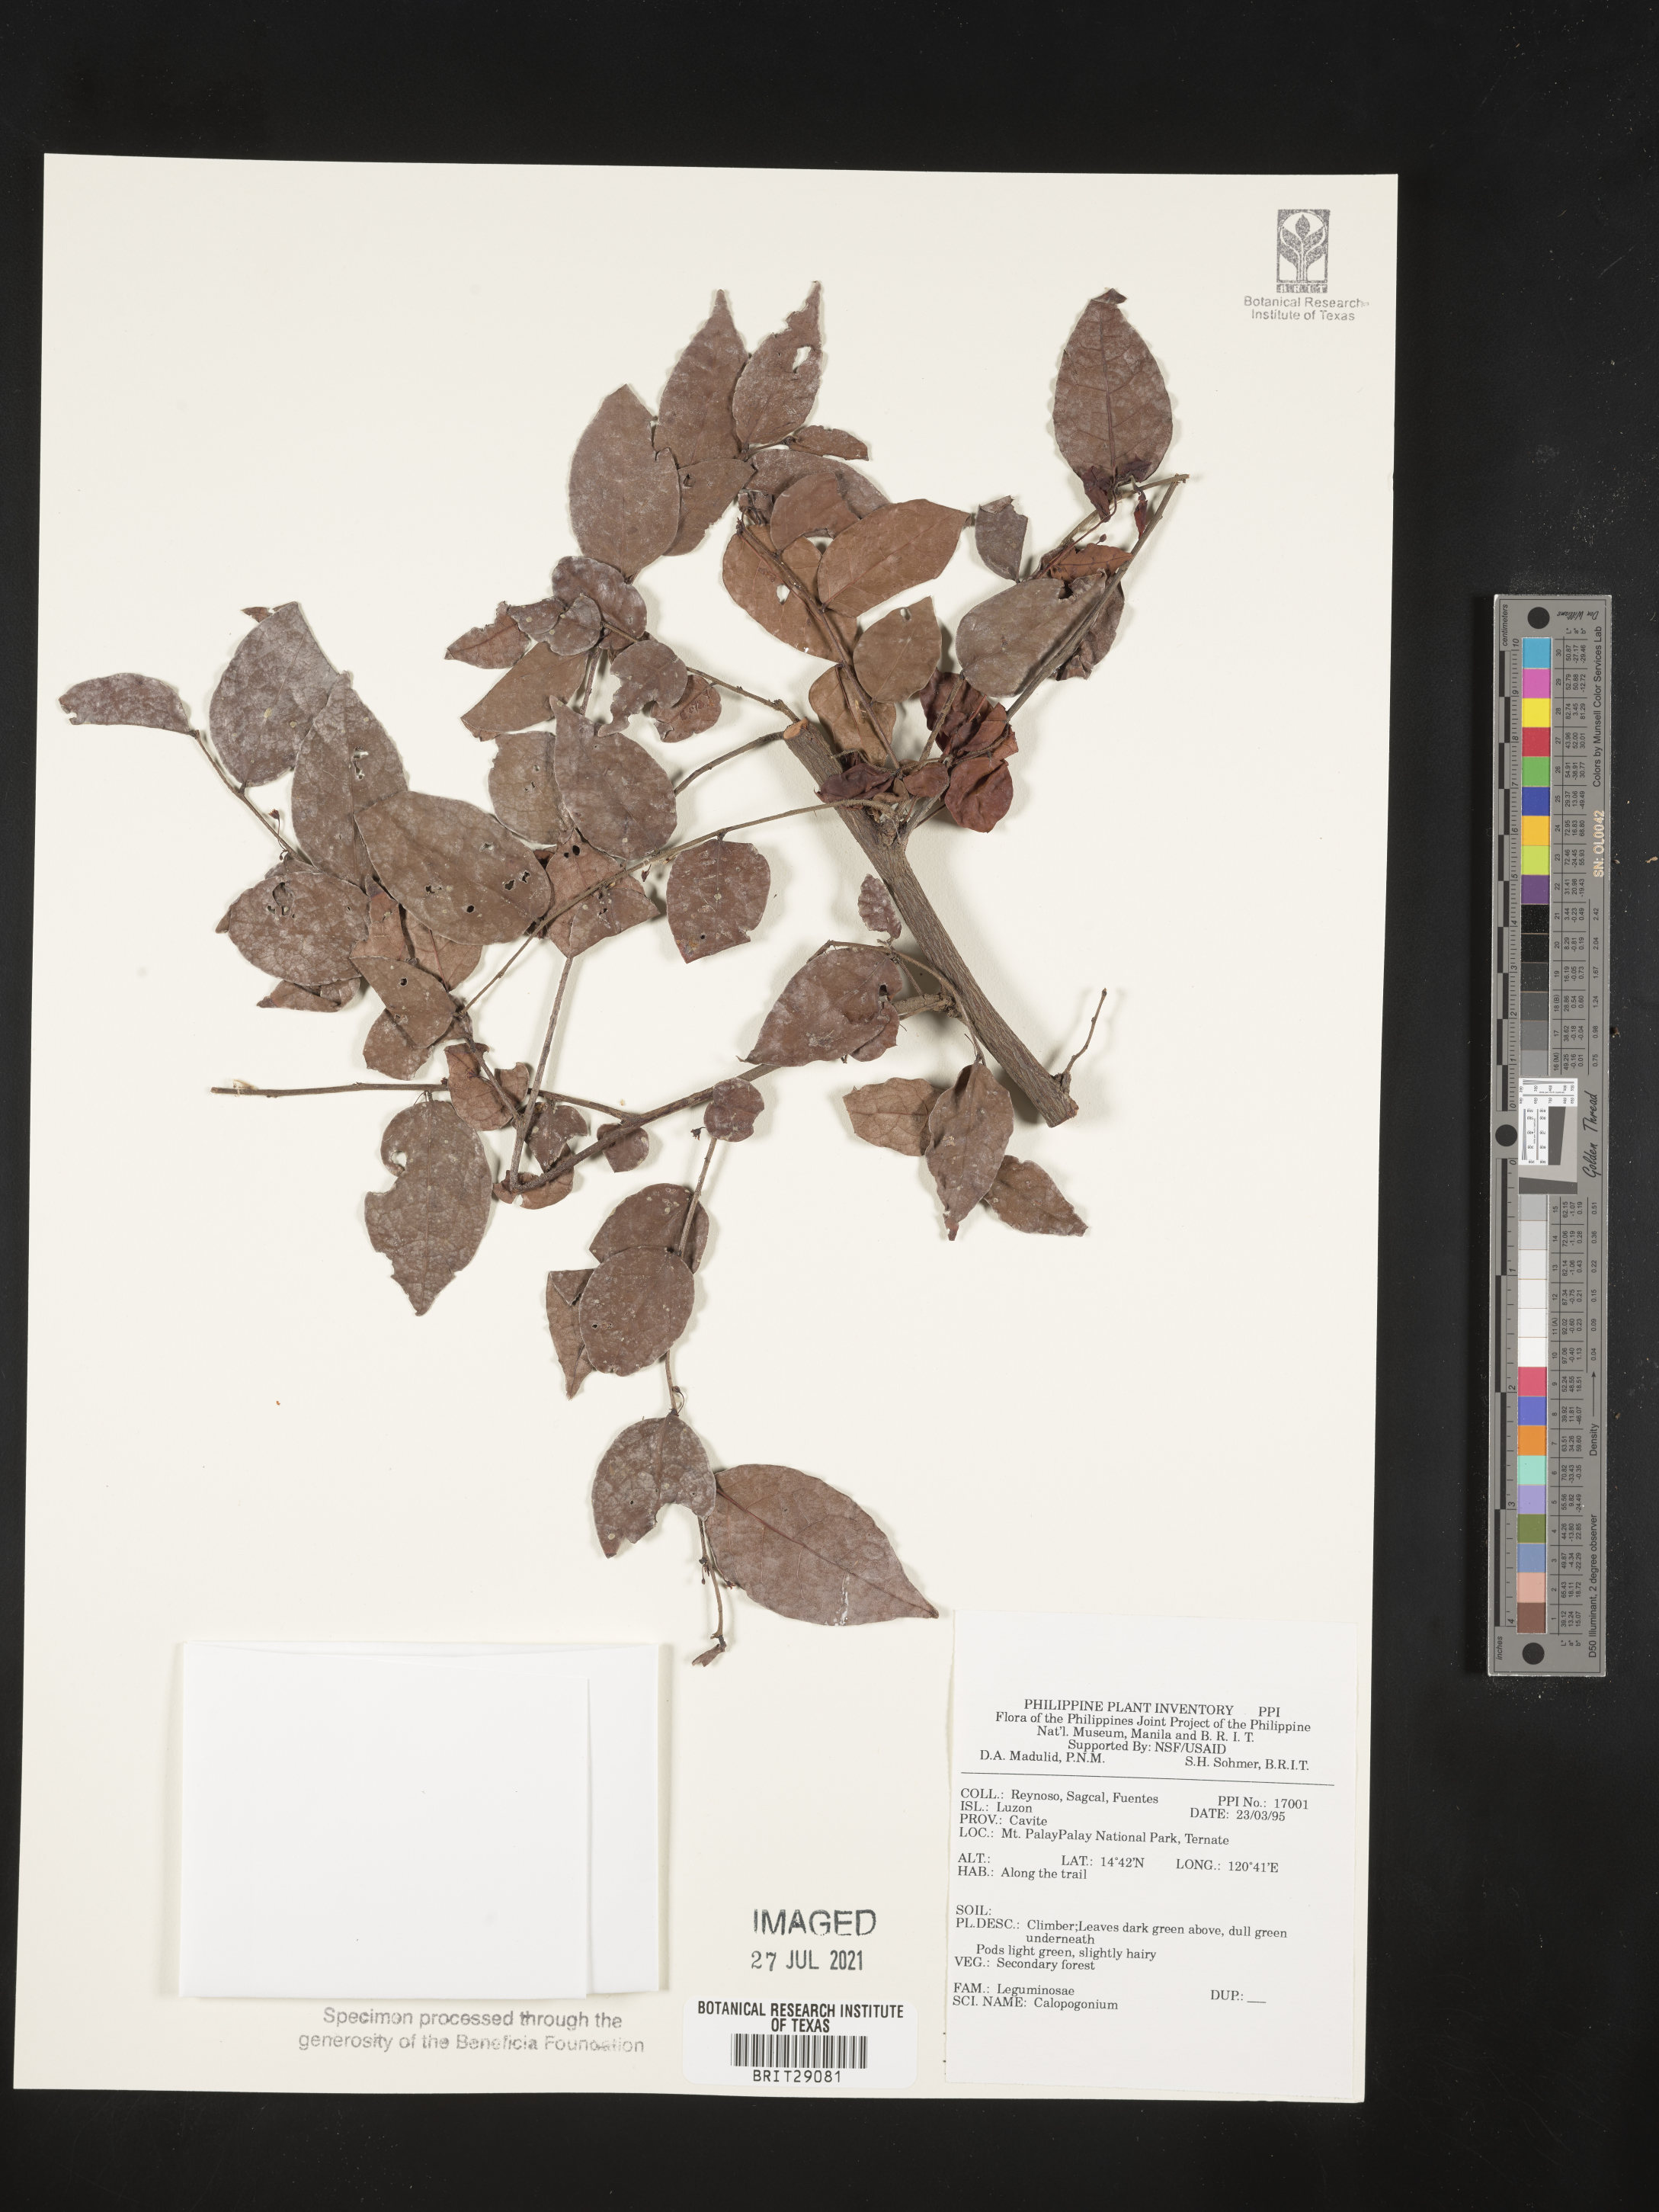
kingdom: Plantae
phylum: Tracheophyta
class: Magnoliopsida
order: Fabales
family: Fabaceae
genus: Calopogonium
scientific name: Calopogonium
